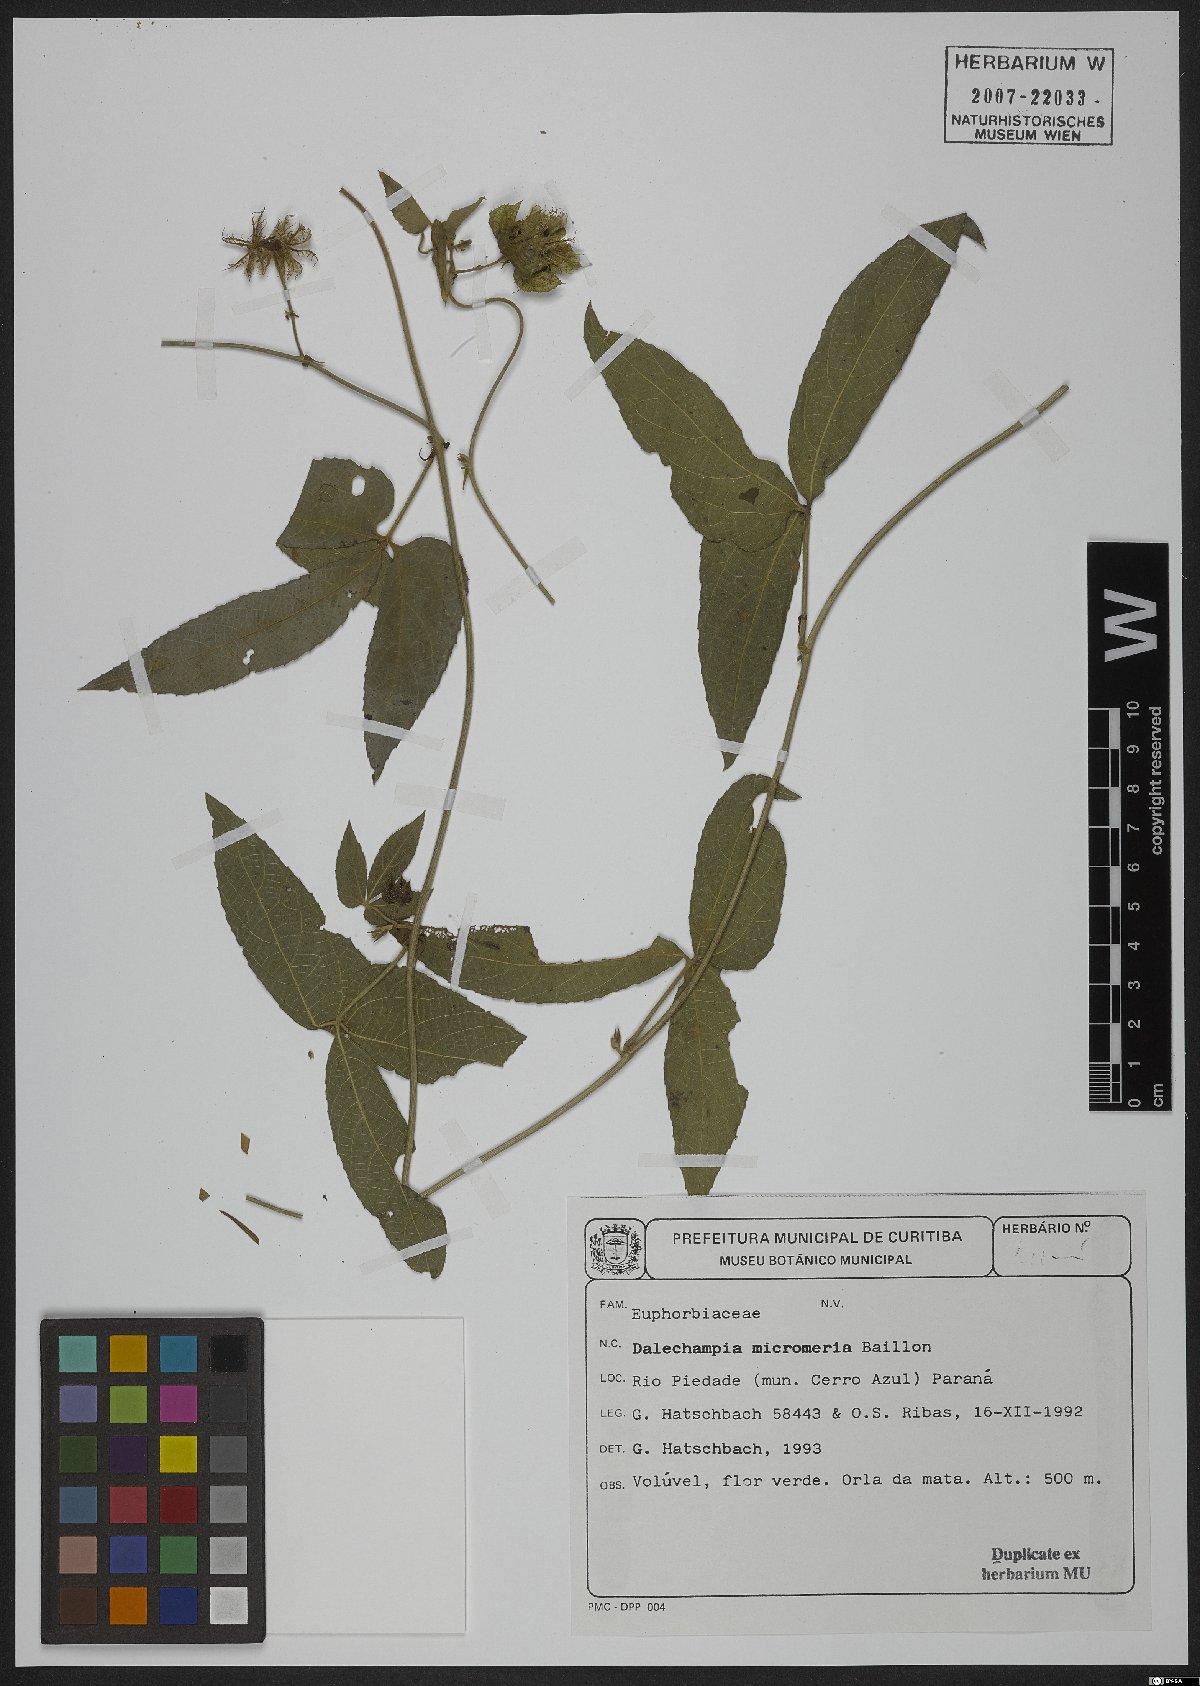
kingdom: Plantae
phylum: Tracheophyta
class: Magnoliopsida
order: Malpighiales
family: Euphorbiaceae
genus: Dalechampia
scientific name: Dalechampia micromeria
